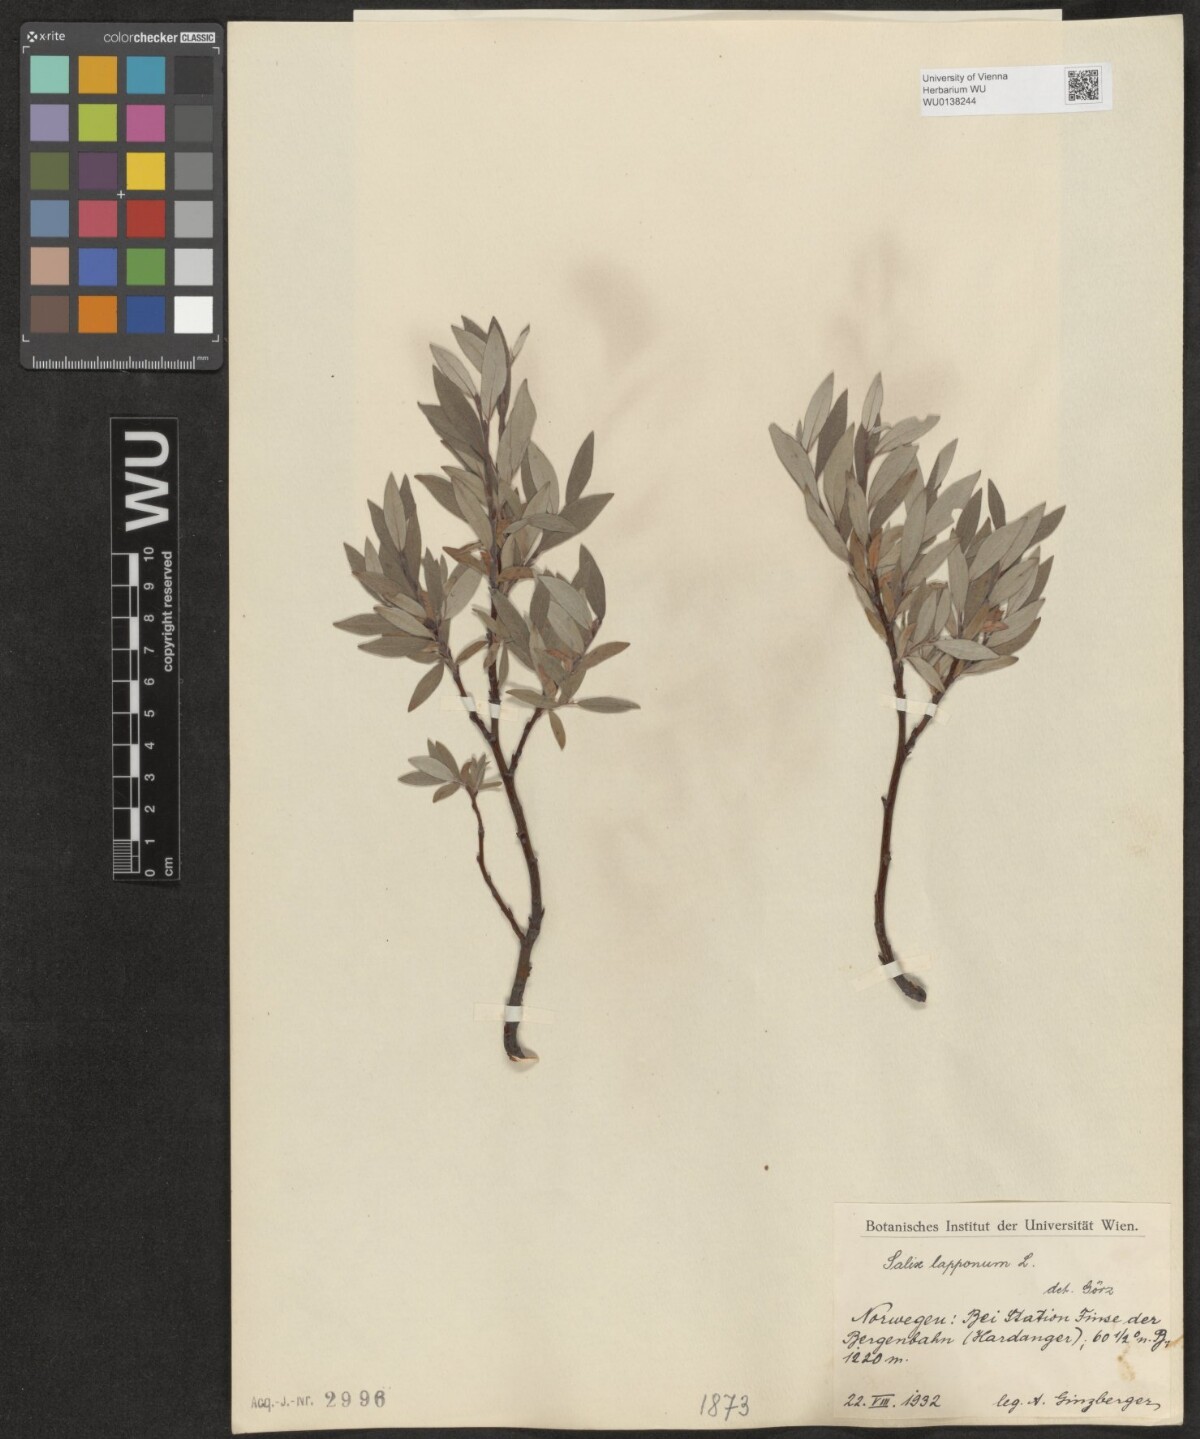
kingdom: Plantae
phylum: Tracheophyta
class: Magnoliopsida
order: Malpighiales
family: Salicaceae
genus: Salix
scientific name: Salix lapponum
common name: Downy willow
